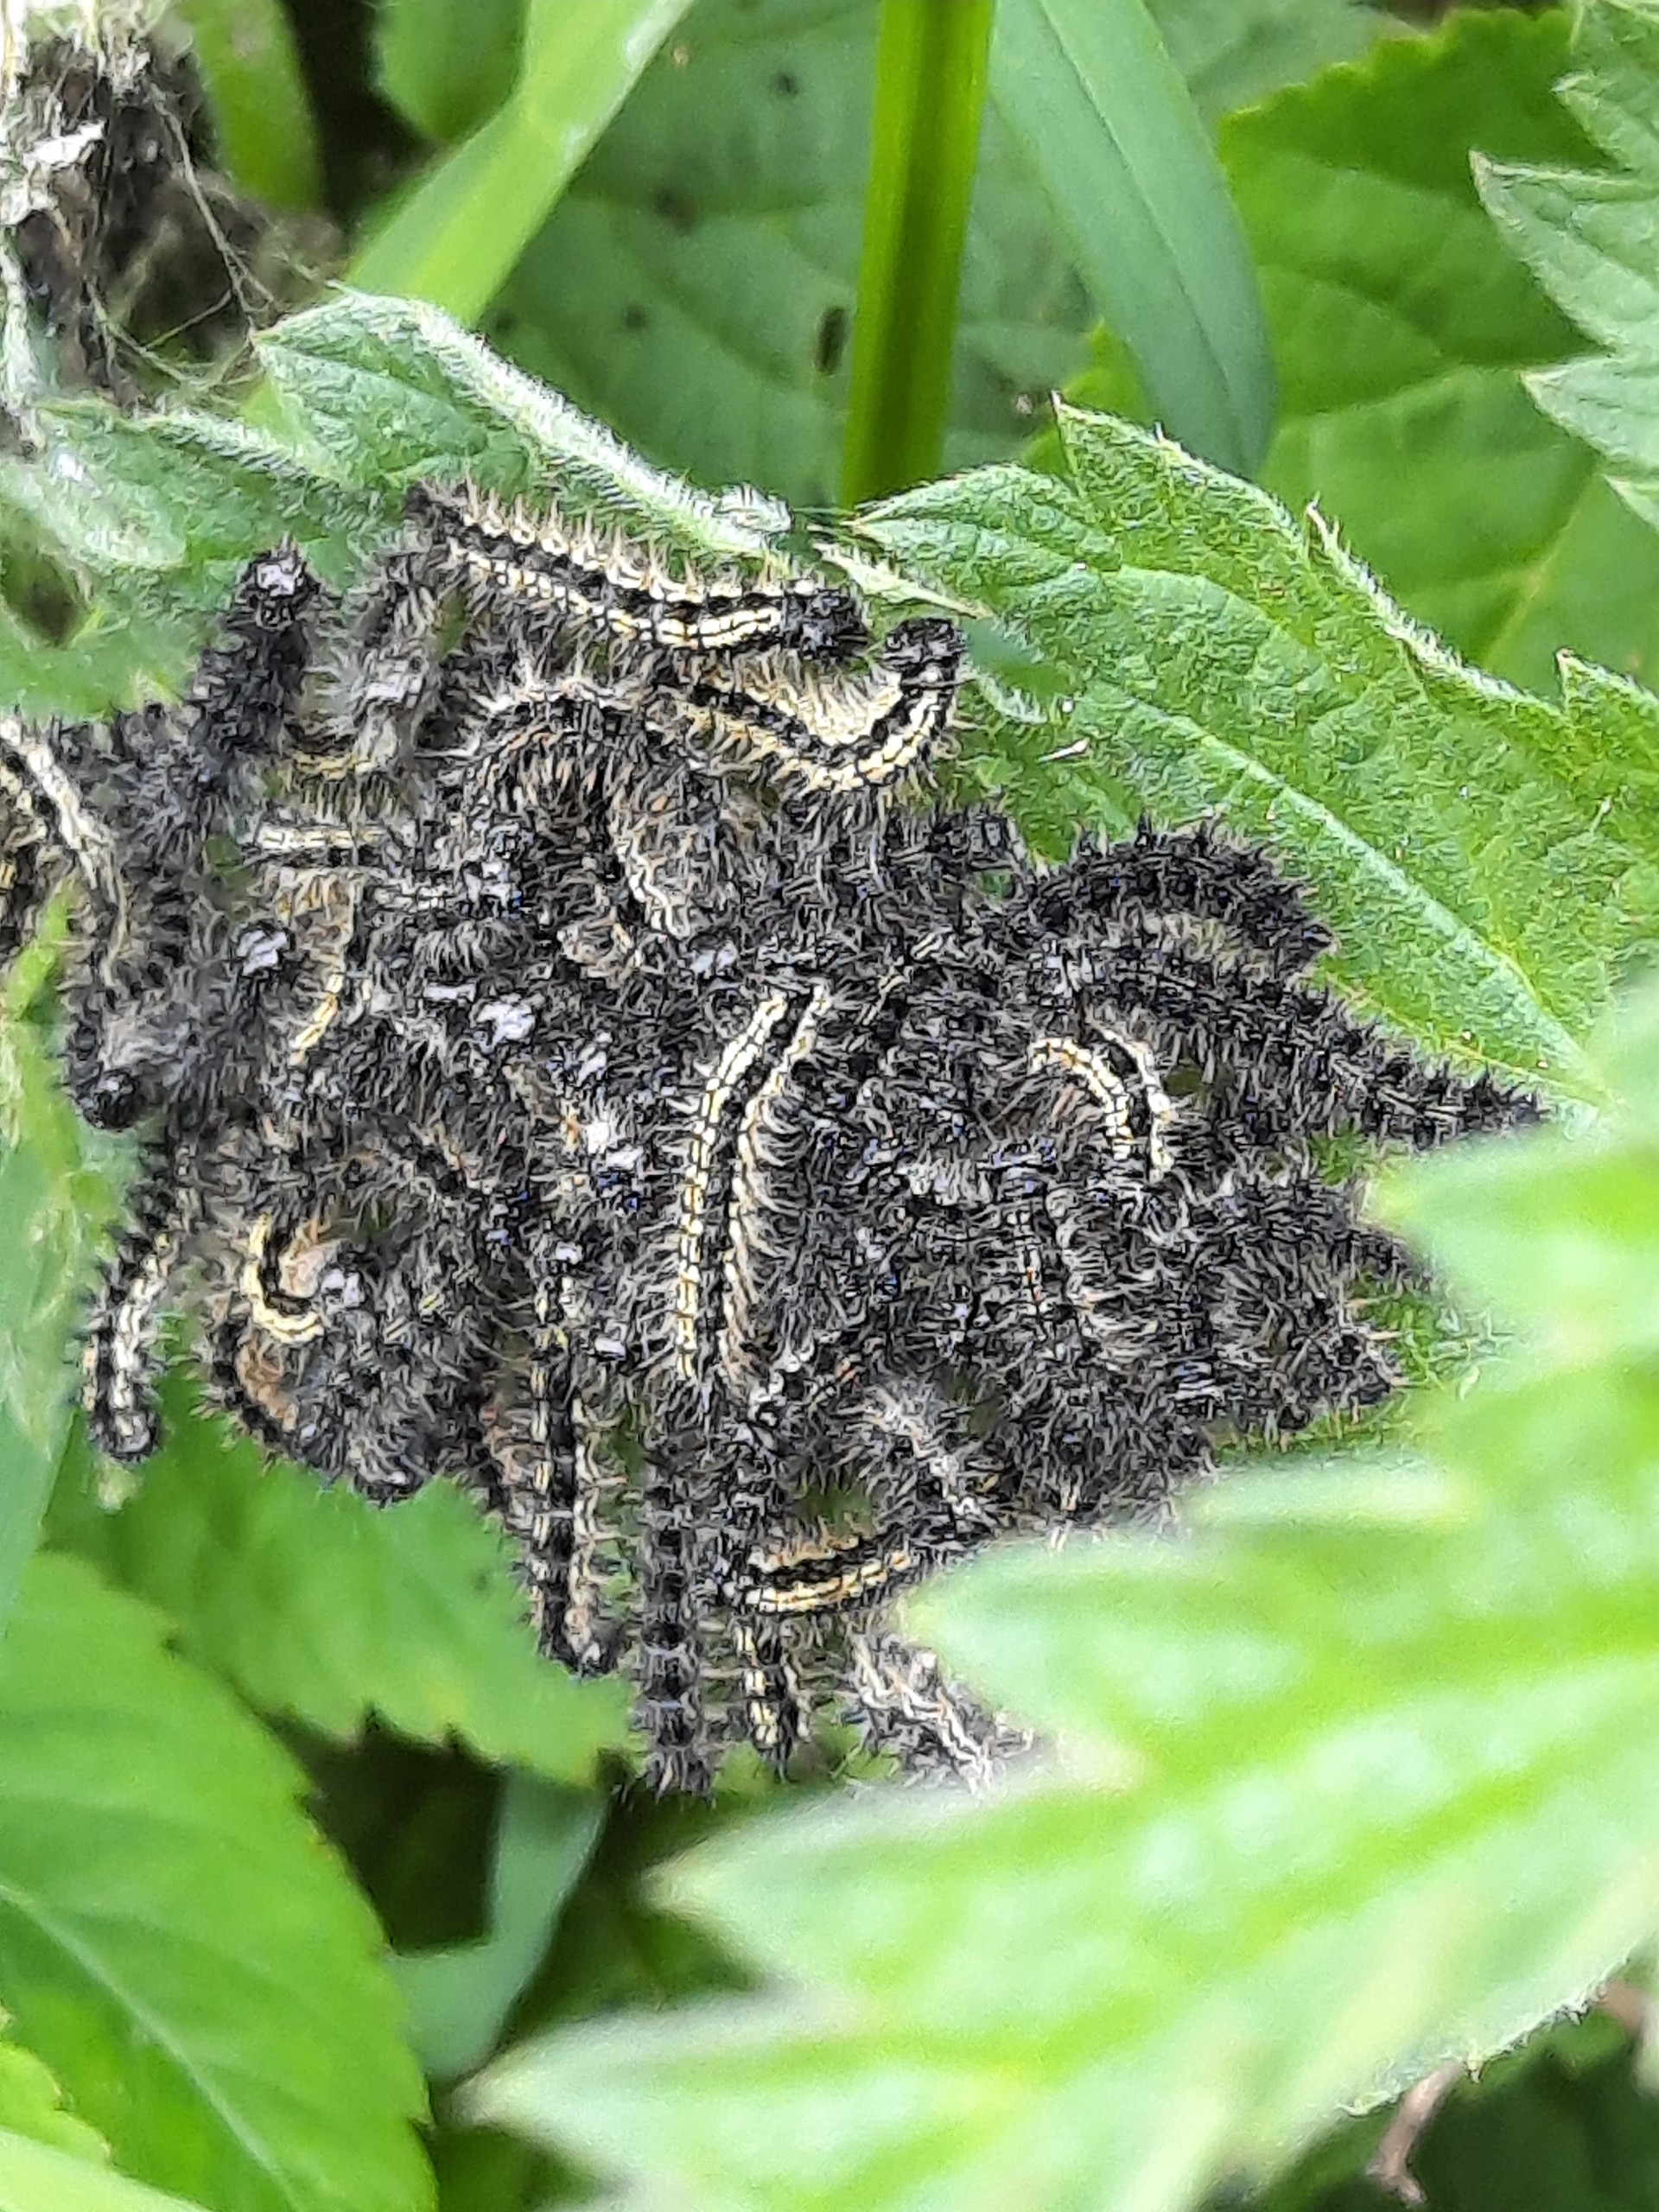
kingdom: Animalia
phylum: Arthropoda
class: Insecta
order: Lepidoptera
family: Nymphalidae
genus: Aglais
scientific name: Aglais urticae
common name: Nældens takvinge
